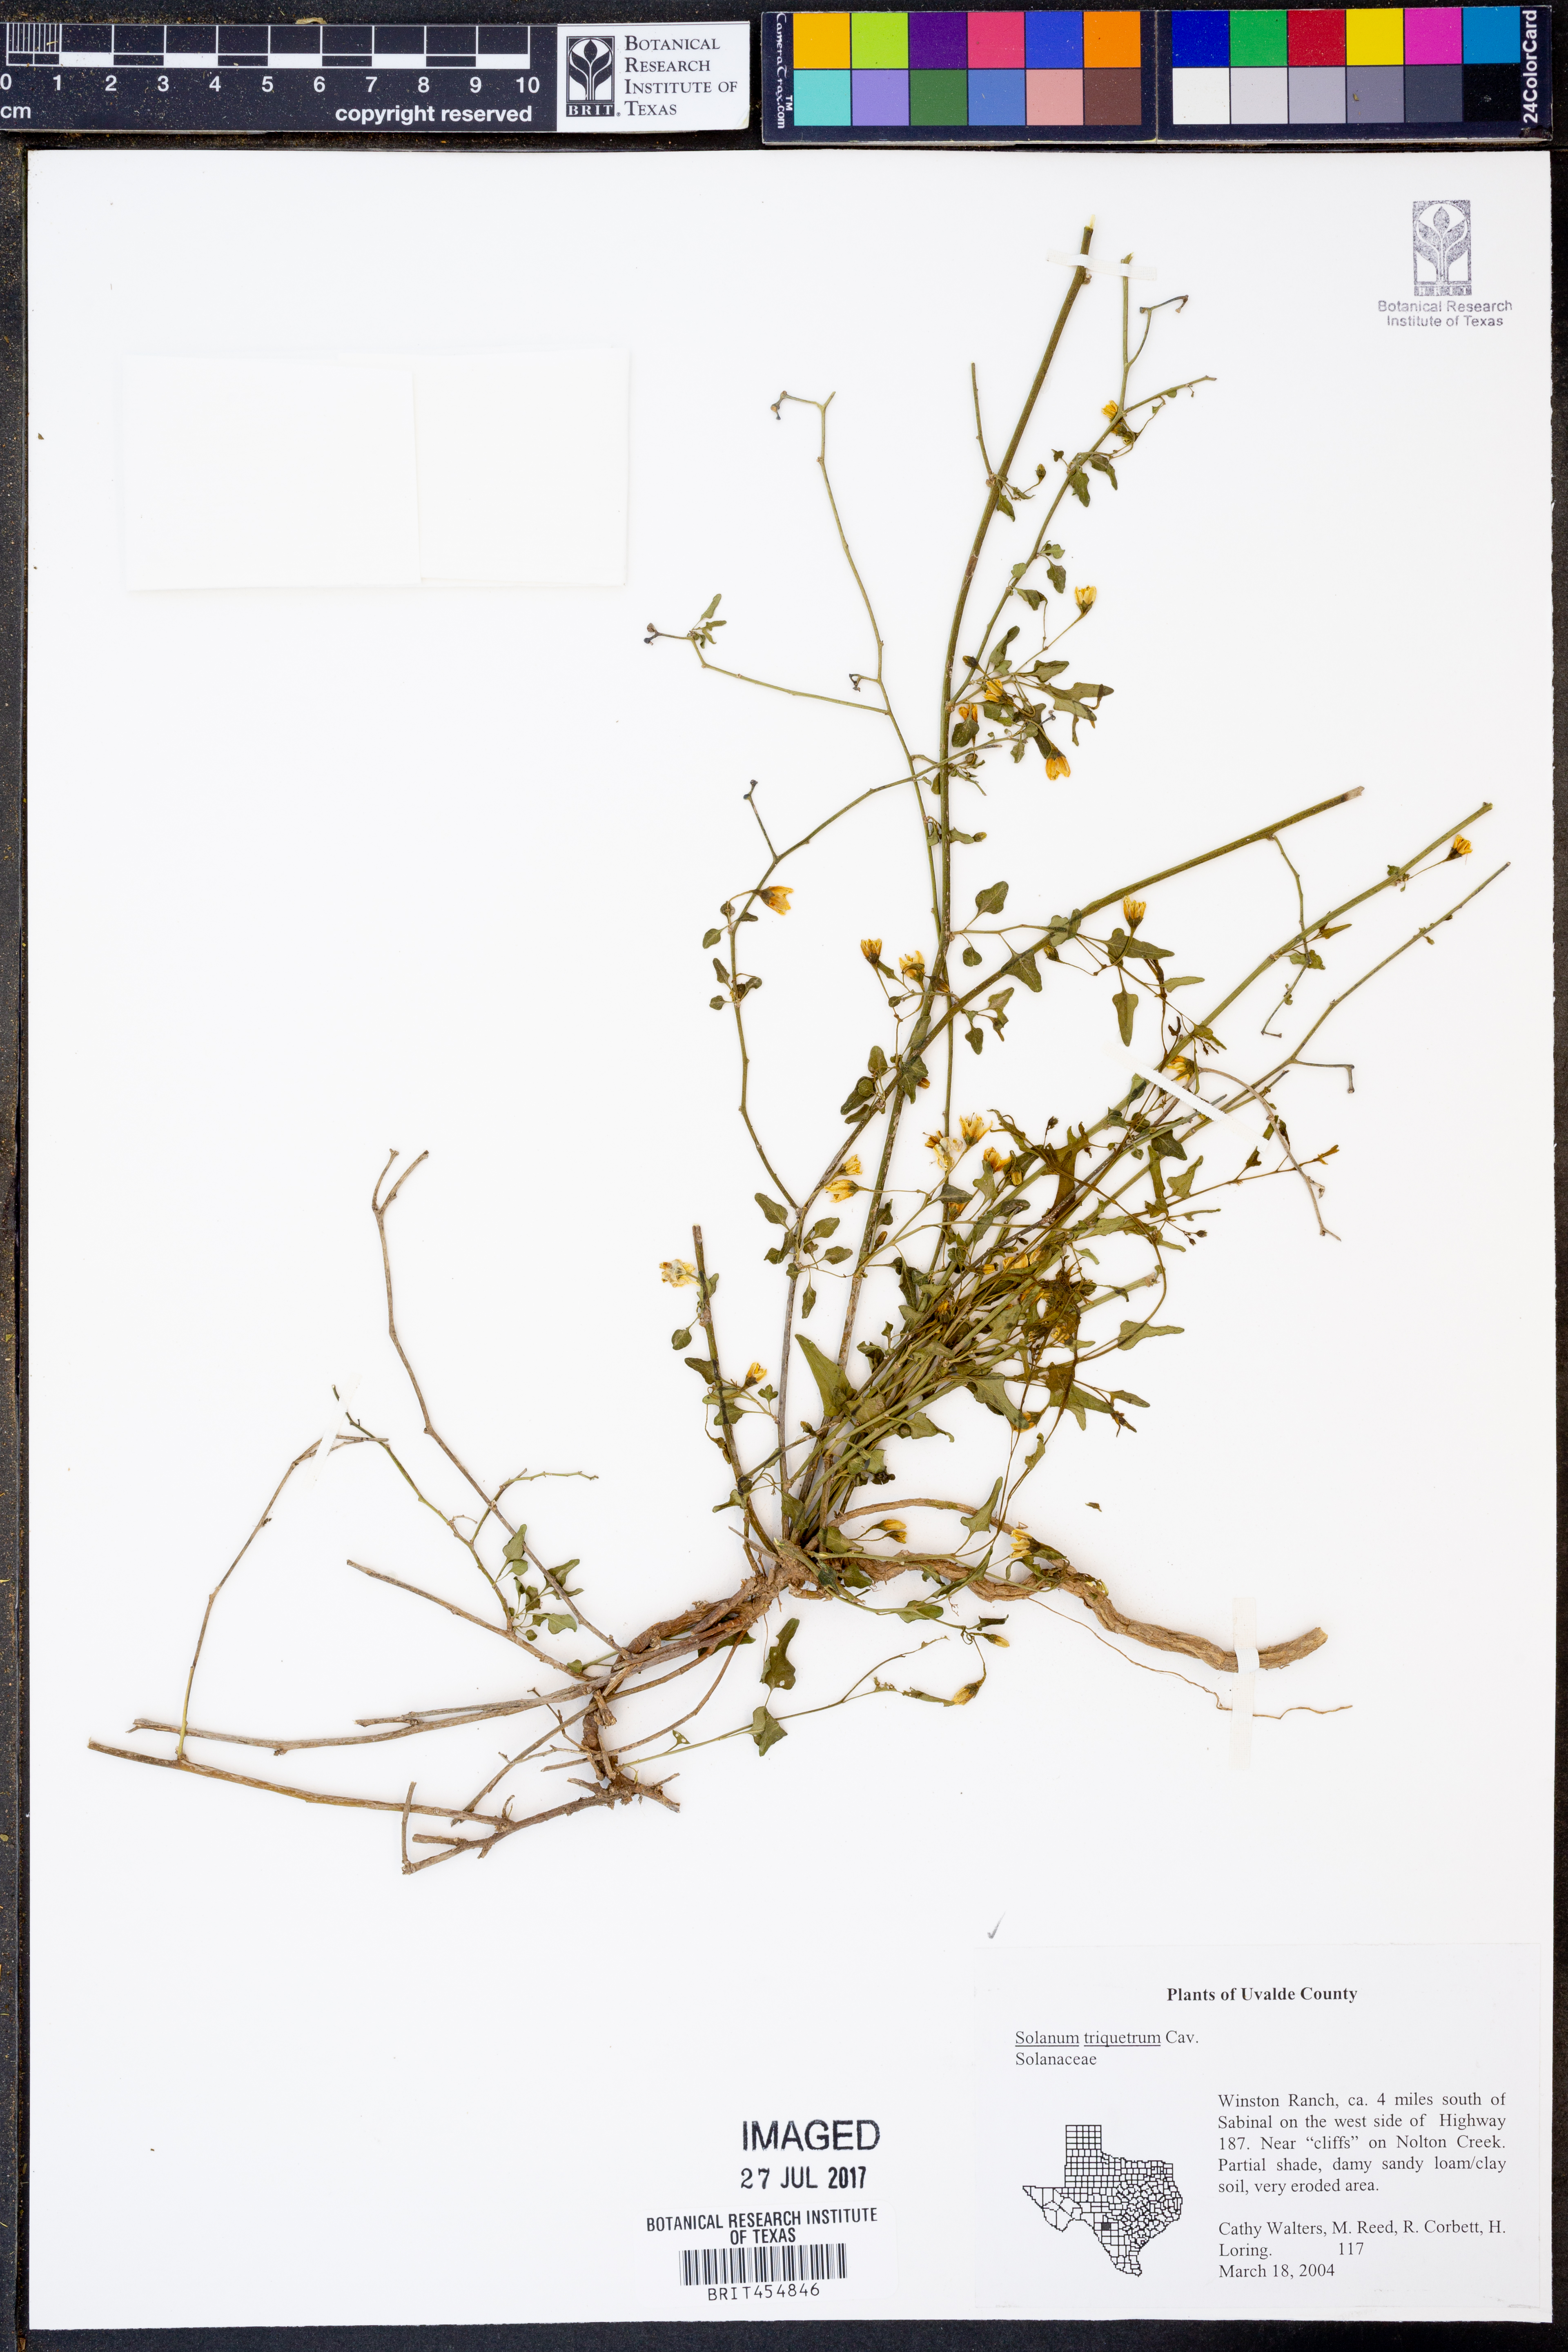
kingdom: Plantae
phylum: Tracheophyta
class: Magnoliopsida
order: Solanales
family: Solanaceae
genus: Solanum
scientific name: Solanum triquetrum
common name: Texas nightshade
